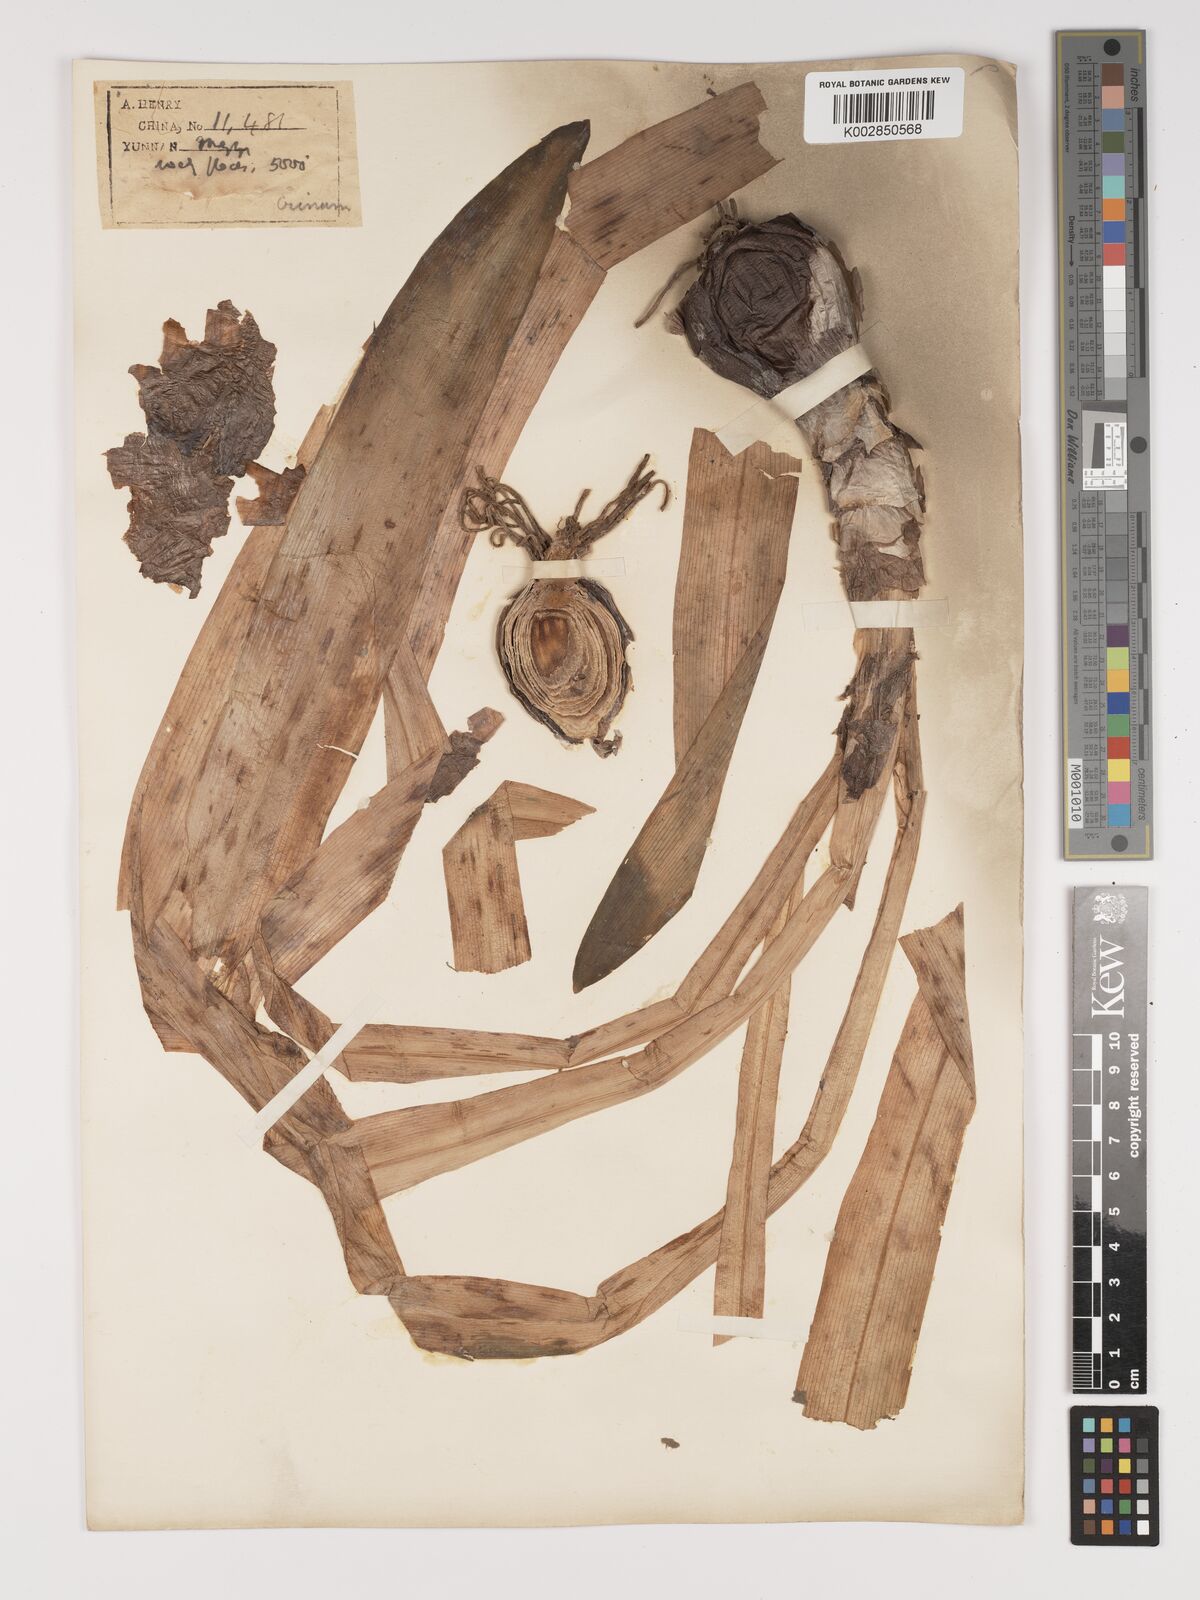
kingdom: Plantae
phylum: Tracheophyta
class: Liliopsida
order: Asparagales
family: Amaryllidaceae
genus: Crinum
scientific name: Crinum asiaticum
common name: Poisonbulb
